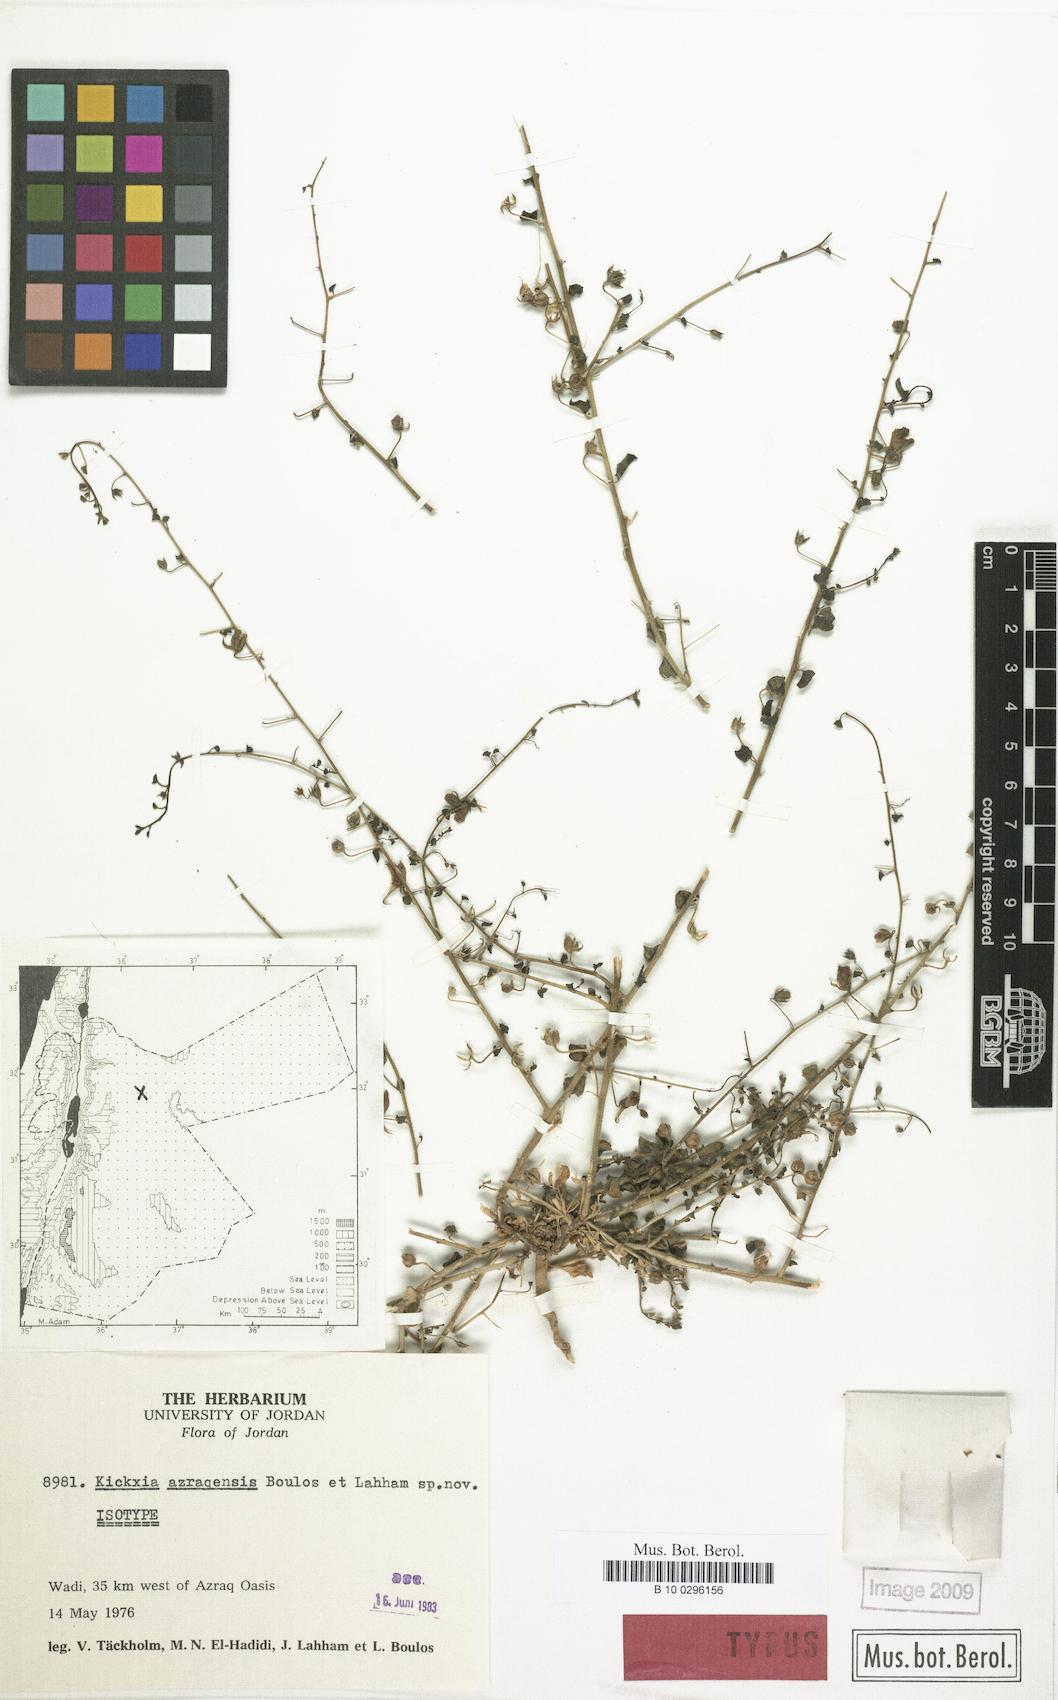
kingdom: Plantae
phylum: Tracheophyta
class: Magnoliopsida
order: Lamiales
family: Plantaginaceae
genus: Nanorrhinum
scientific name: Nanorrhinum azraqense
